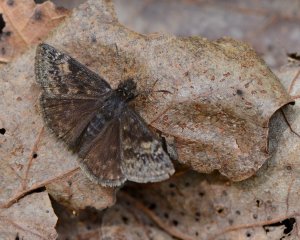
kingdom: Animalia
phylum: Arthropoda
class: Insecta
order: Lepidoptera
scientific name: Lepidoptera
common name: Butterflies
